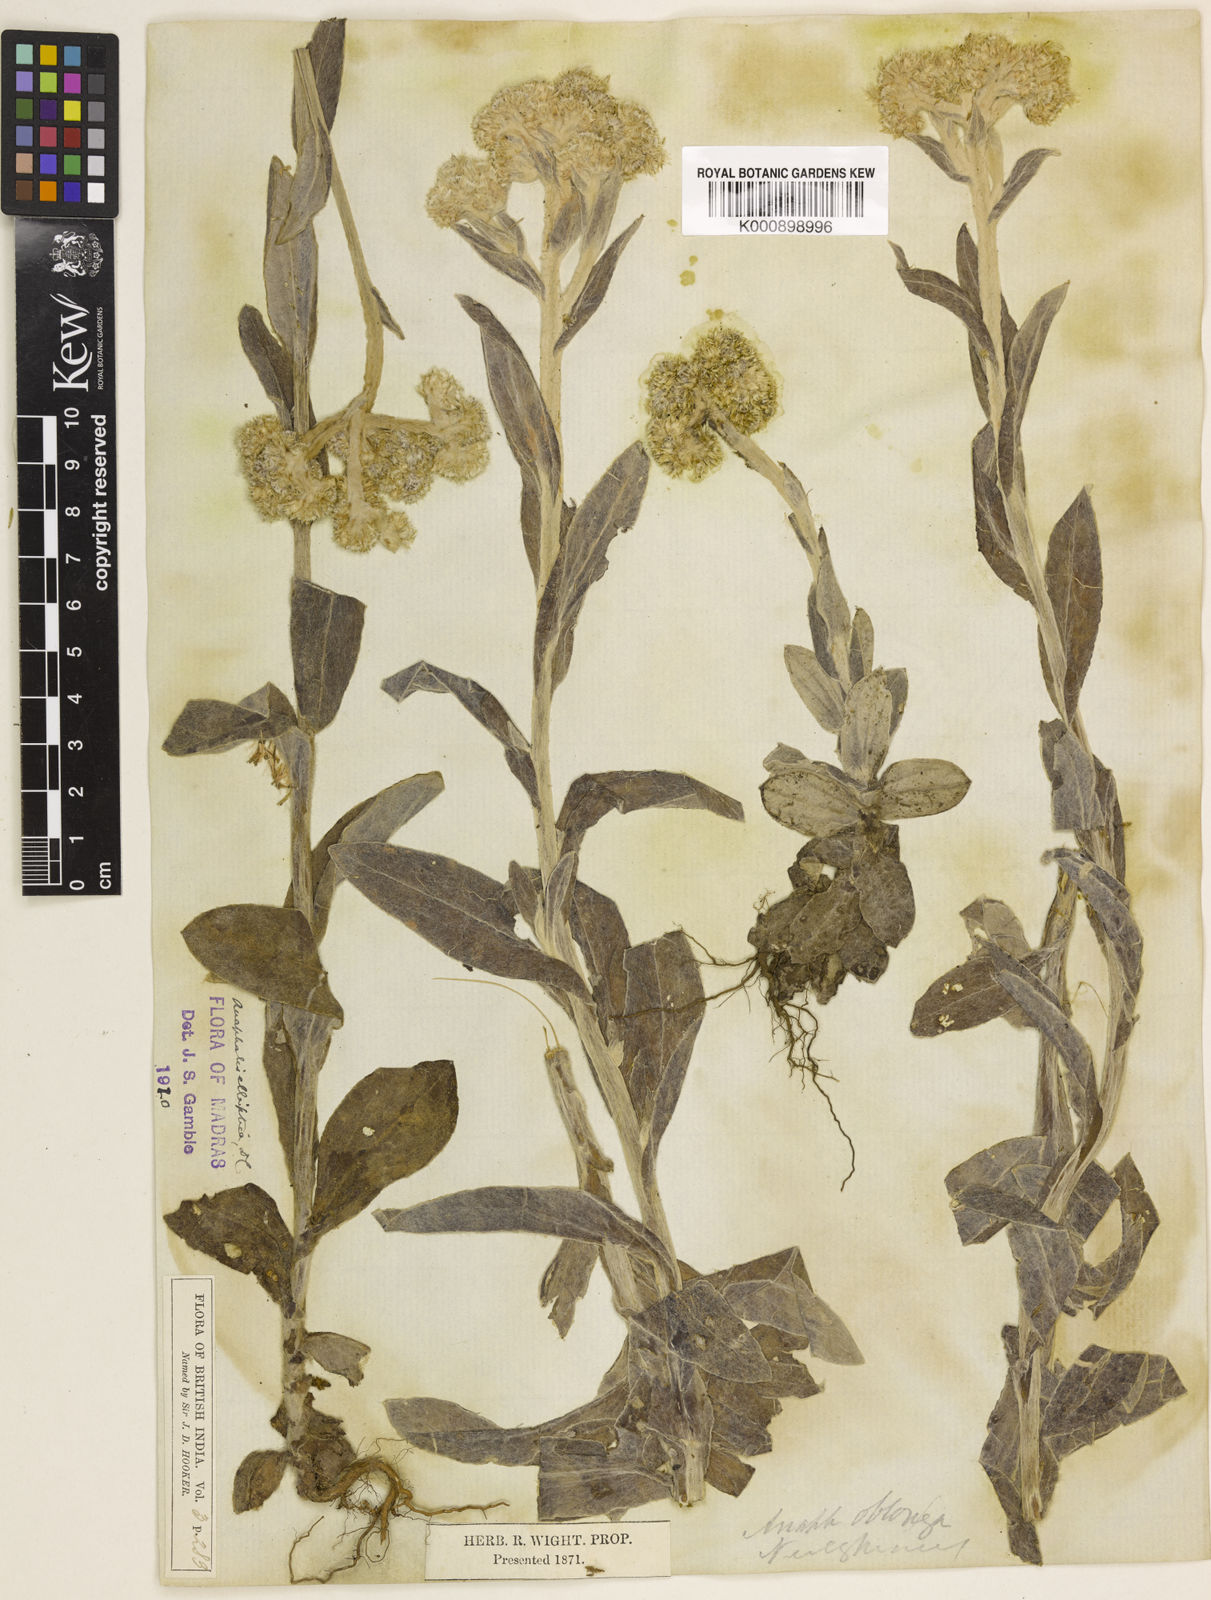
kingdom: Plantae
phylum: Tracheophyta
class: Magnoliopsida
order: Asterales
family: Asteraceae
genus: Anaphalis
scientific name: Anaphalis elliptica
